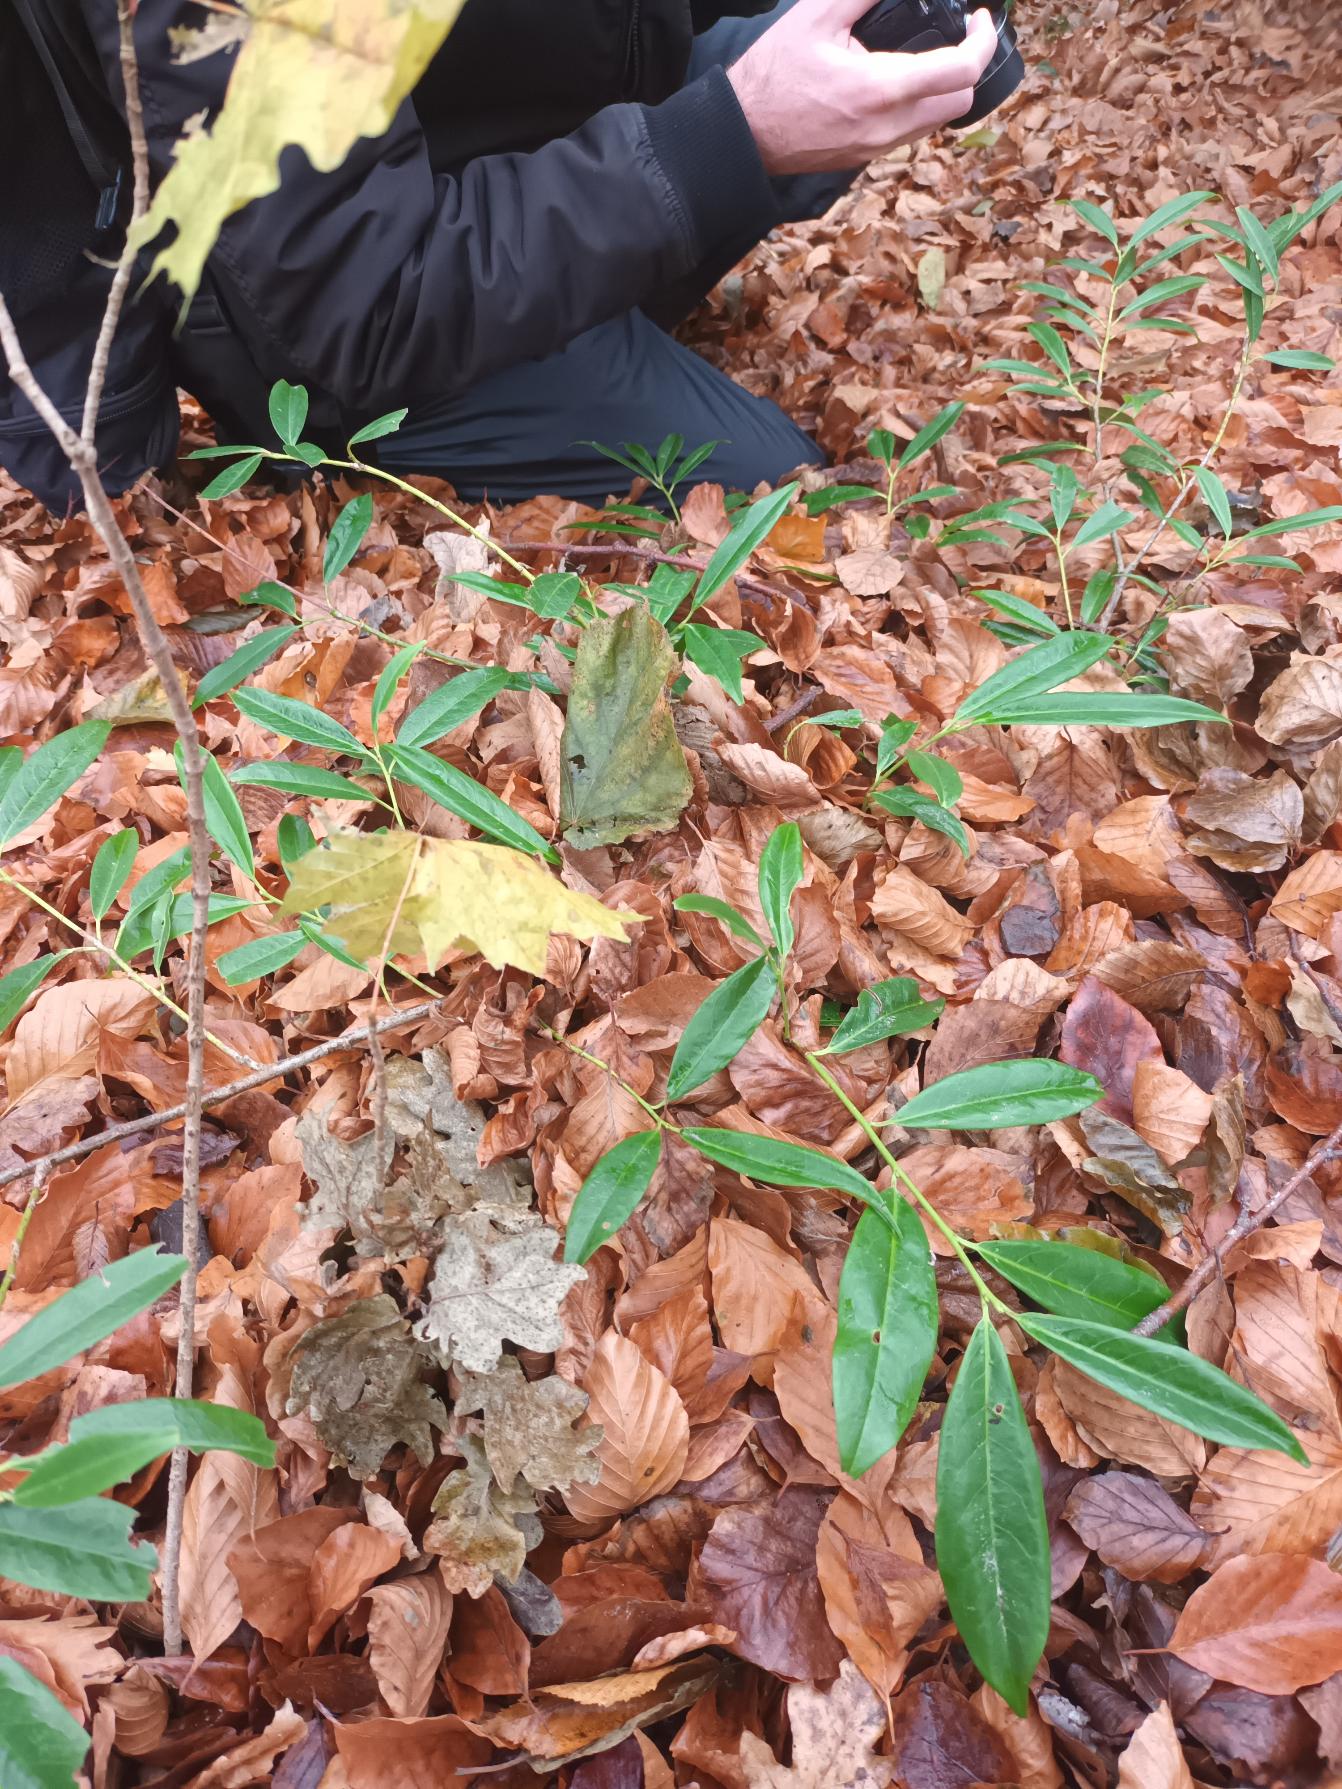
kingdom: Plantae
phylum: Tracheophyta
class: Magnoliopsida
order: Rosales
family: Rosaceae
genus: Prunus
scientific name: Prunus laurocerasus
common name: Laurbærkirsebær
